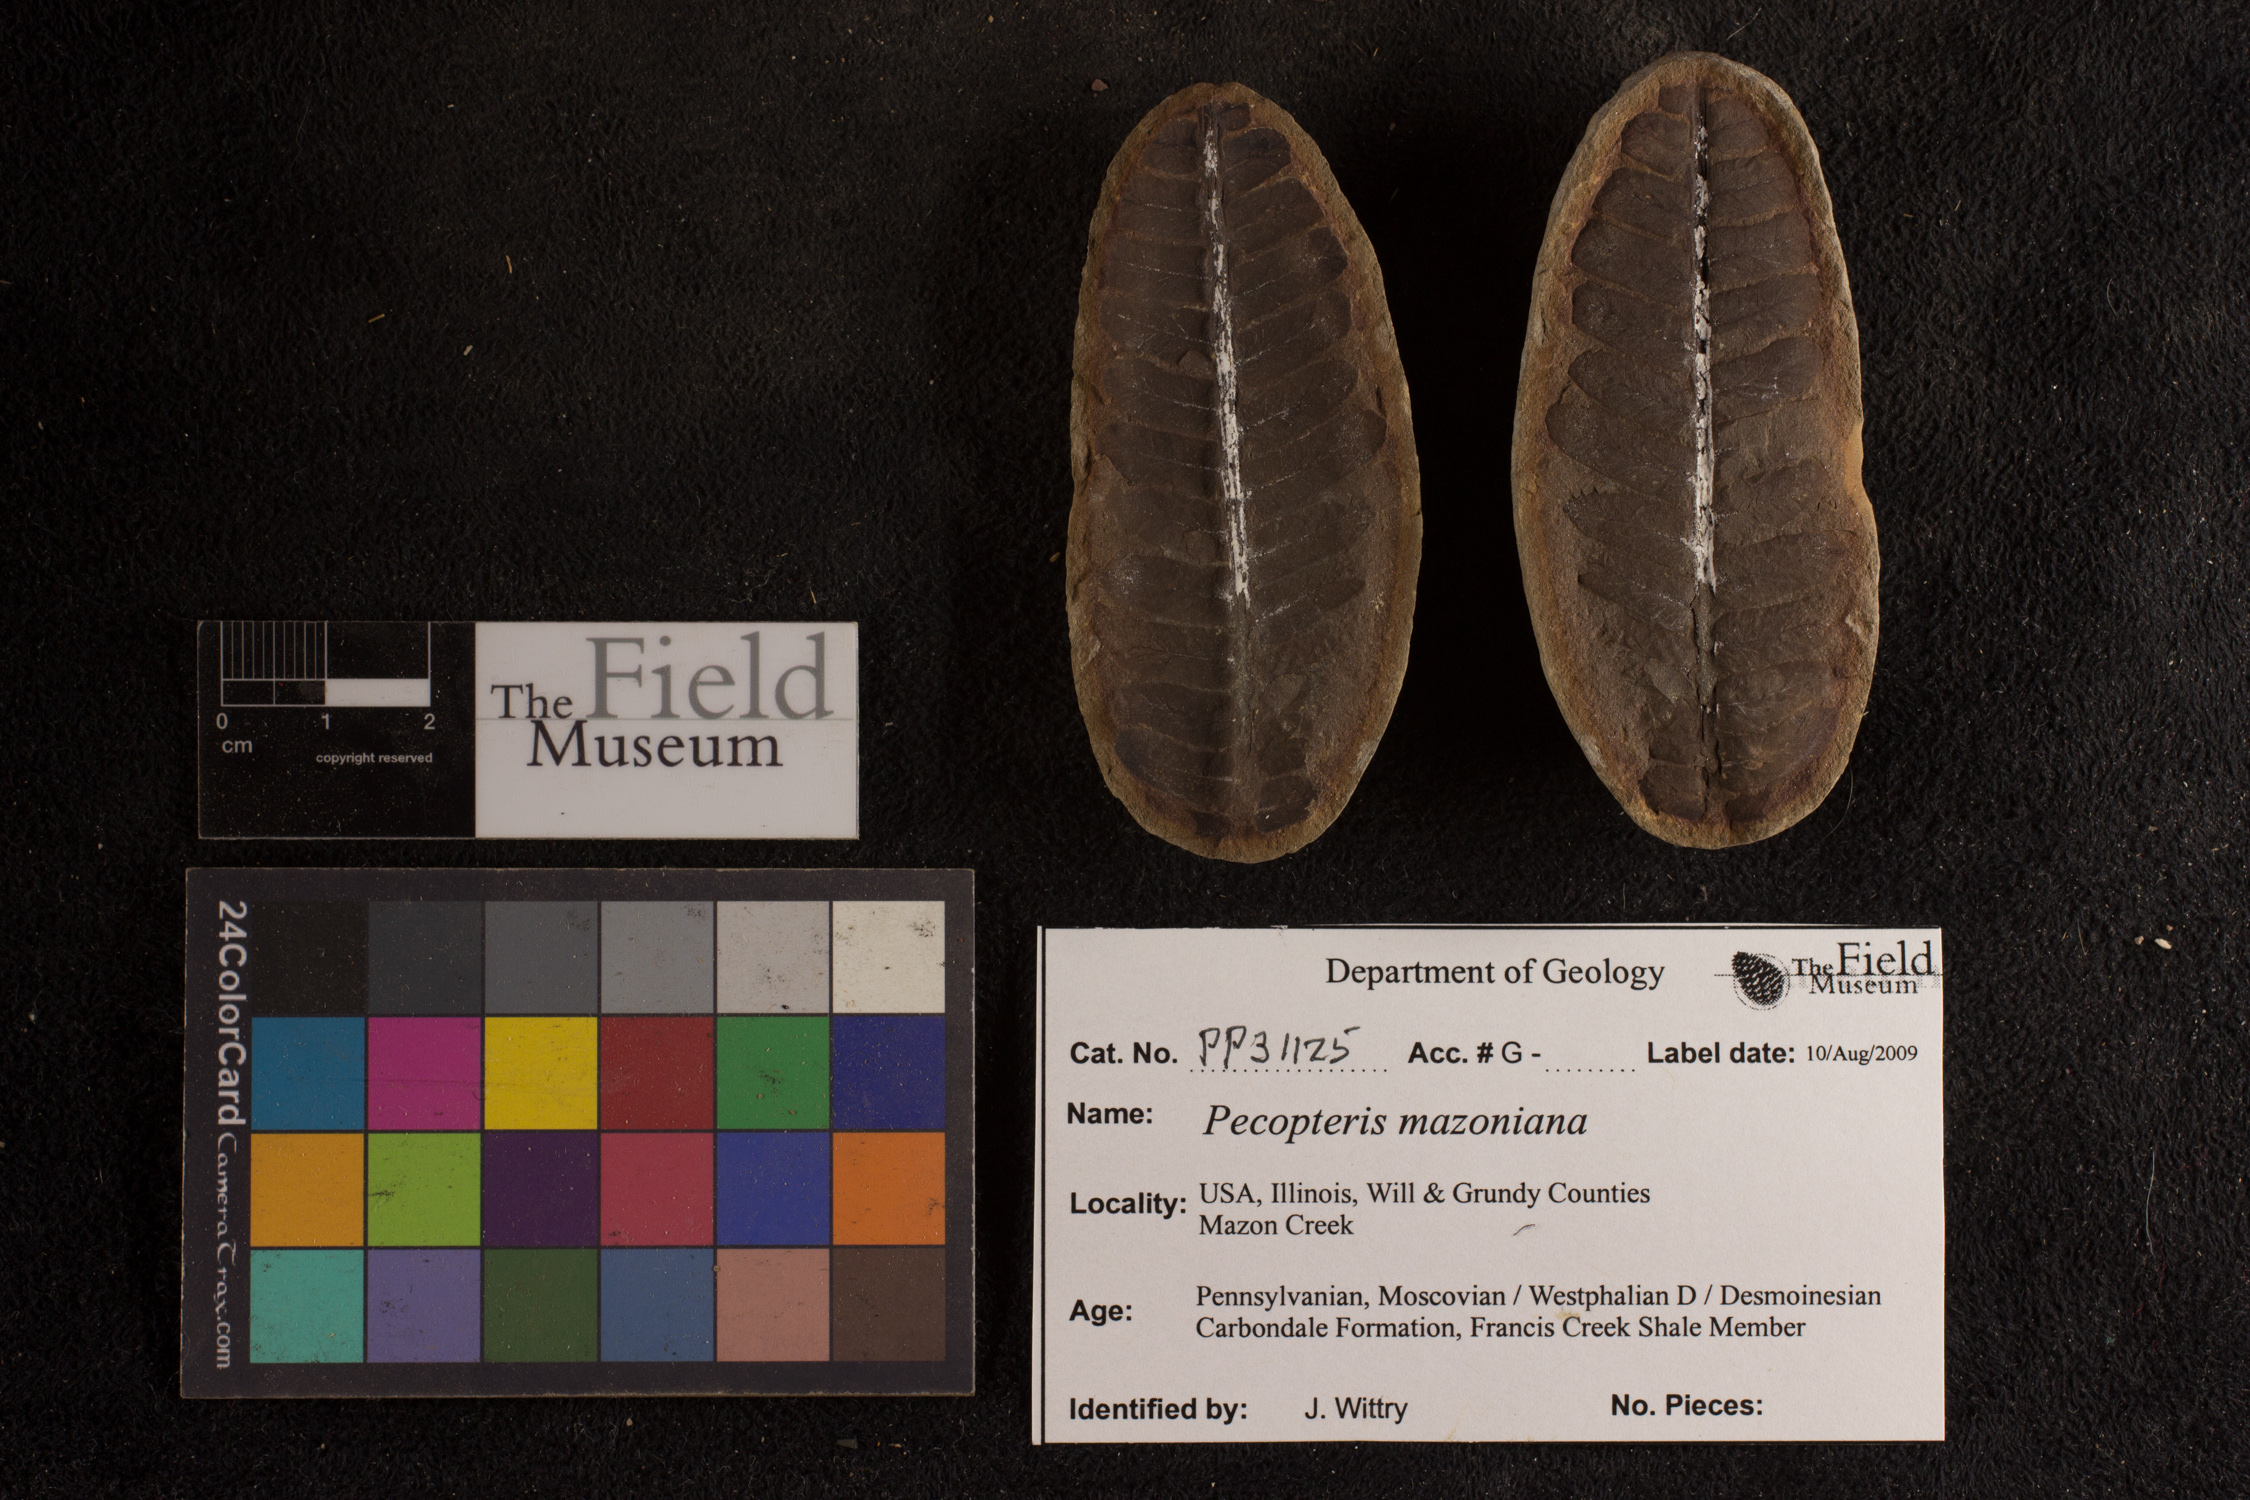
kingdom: Plantae
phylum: Tracheophyta
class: Polypodiopsida
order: Marattiales
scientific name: Marattiales
